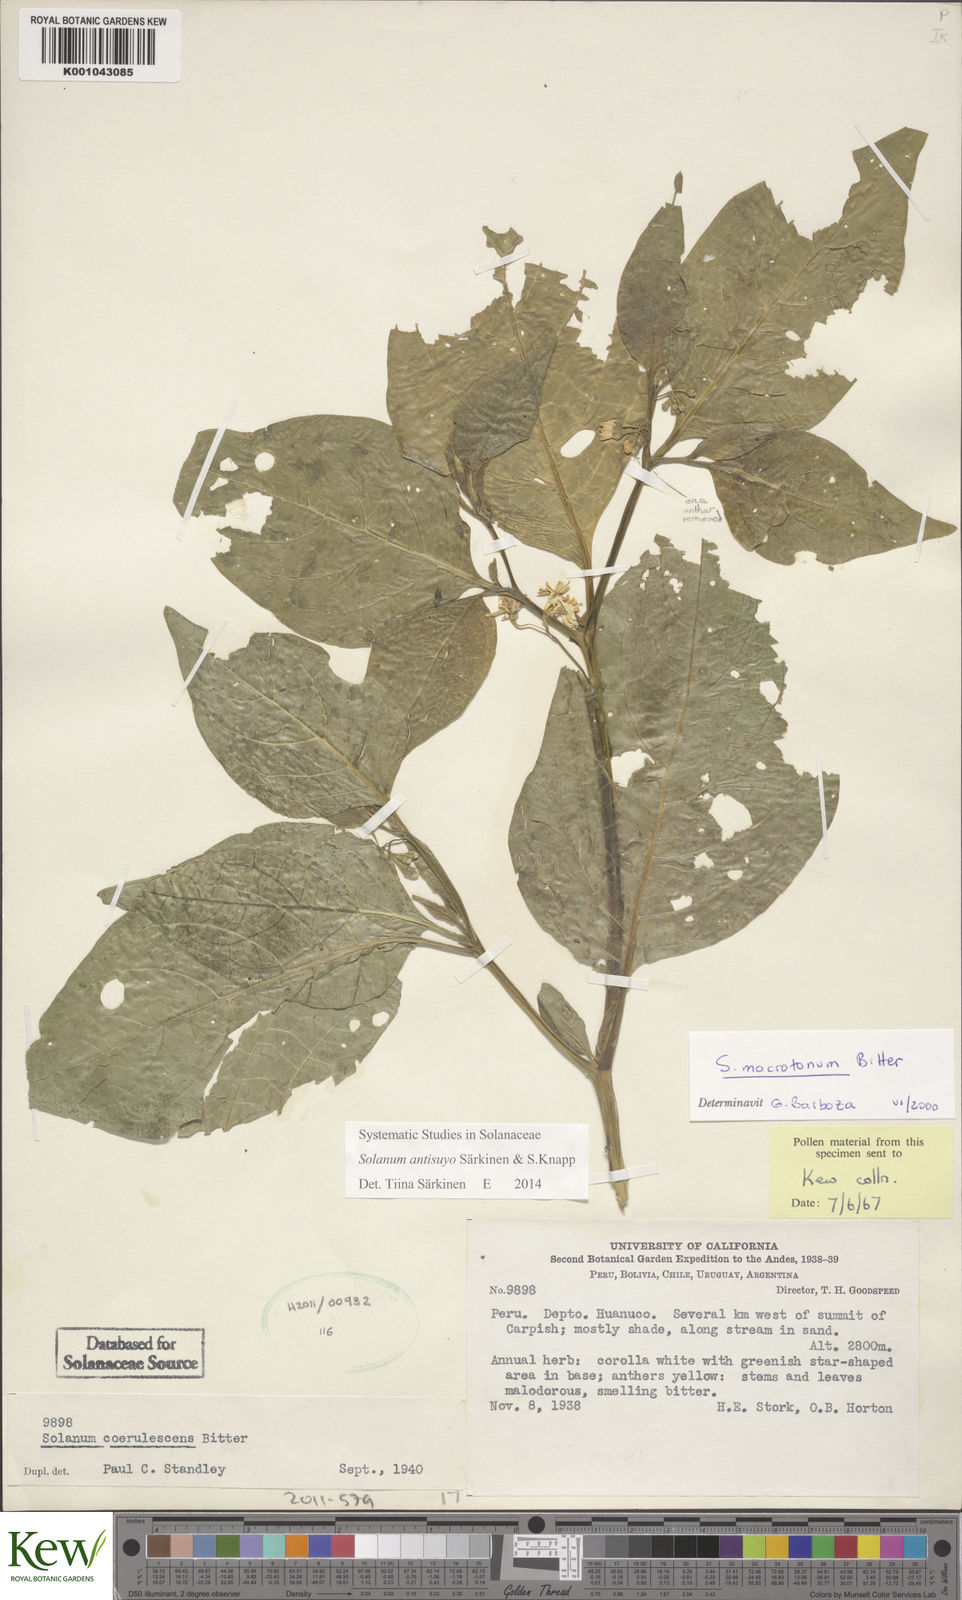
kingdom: Plantae
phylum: Tracheophyta
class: Magnoliopsida
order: Solanales
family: Solanaceae
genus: Solanum
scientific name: Solanum
